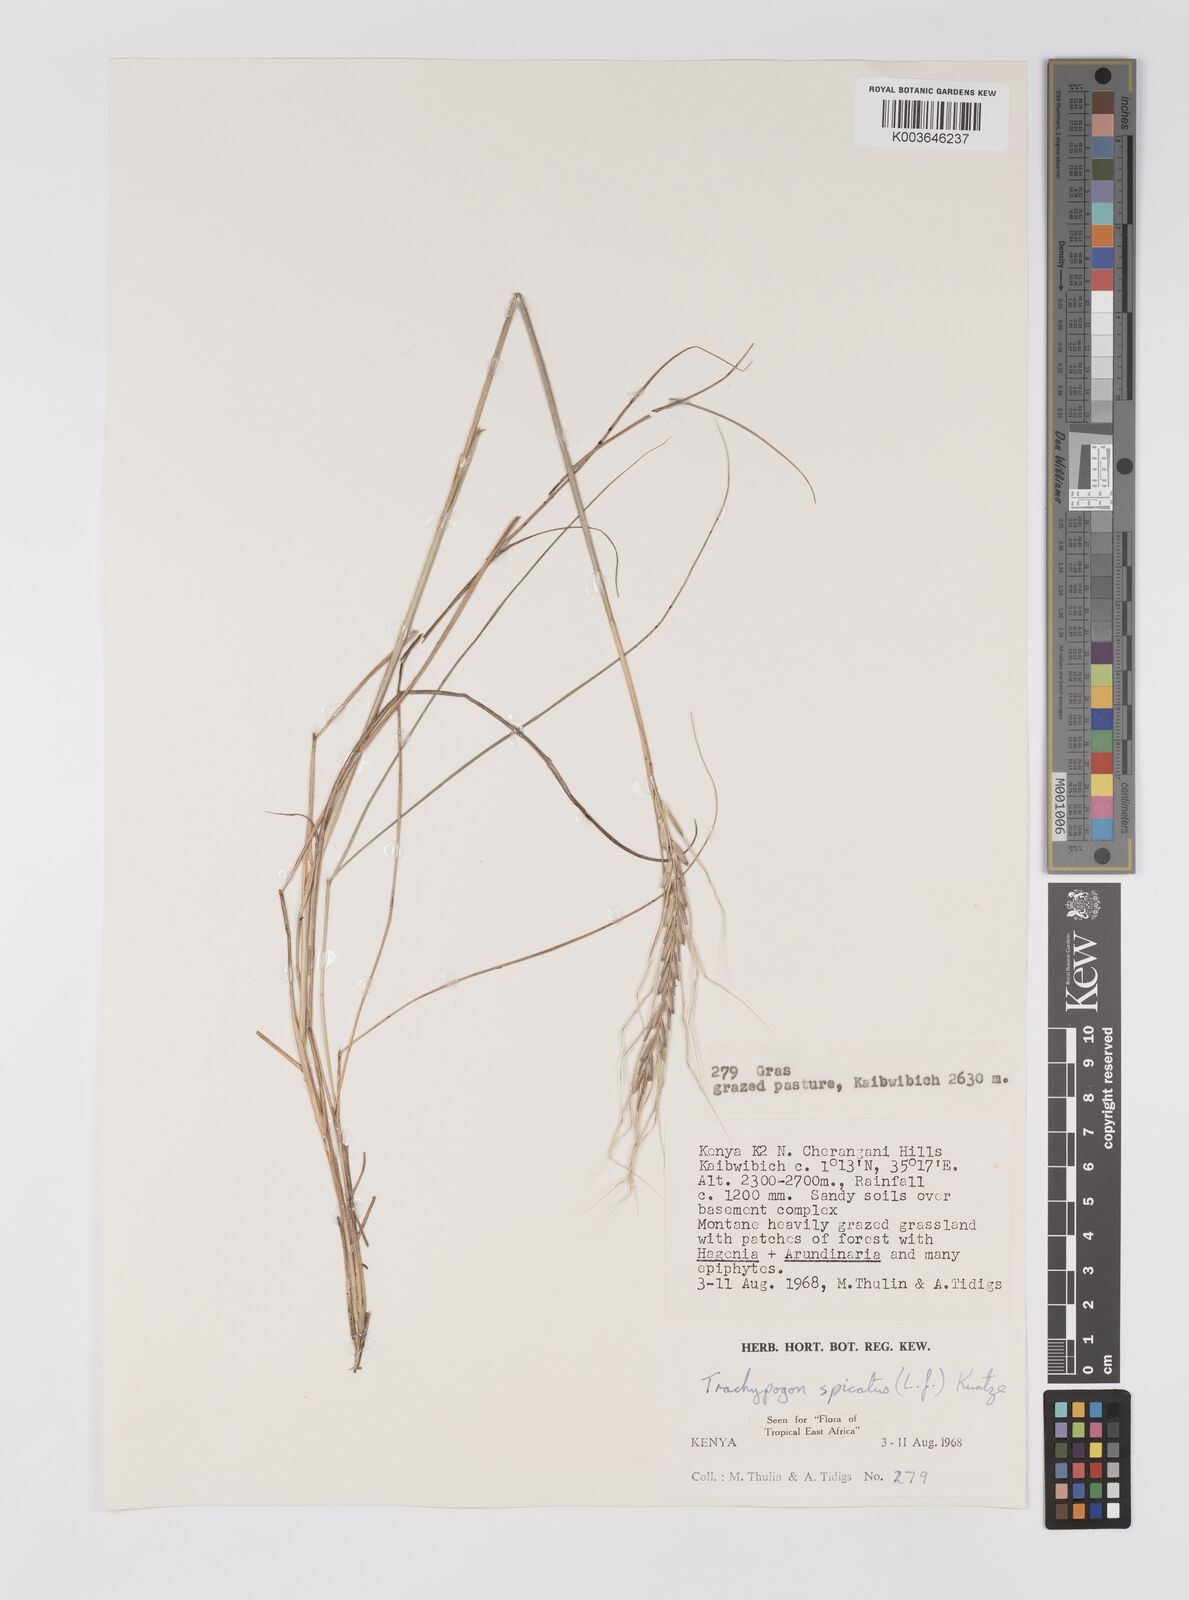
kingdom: Plantae
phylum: Tracheophyta
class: Liliopsida
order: Poales
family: Poaceae
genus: Trachypogon
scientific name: Trachypogon spicatus
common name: Crinkle-awn
